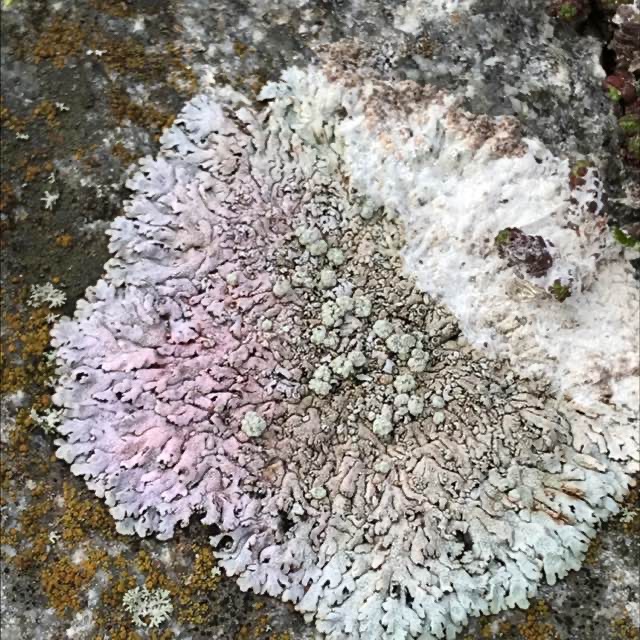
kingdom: Fungi
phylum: Ascomycota
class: Lecanoromycetes
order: Caliciales
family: Physciaceae
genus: Physcia
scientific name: Physcia caesia
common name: Blågrå rosetlav
